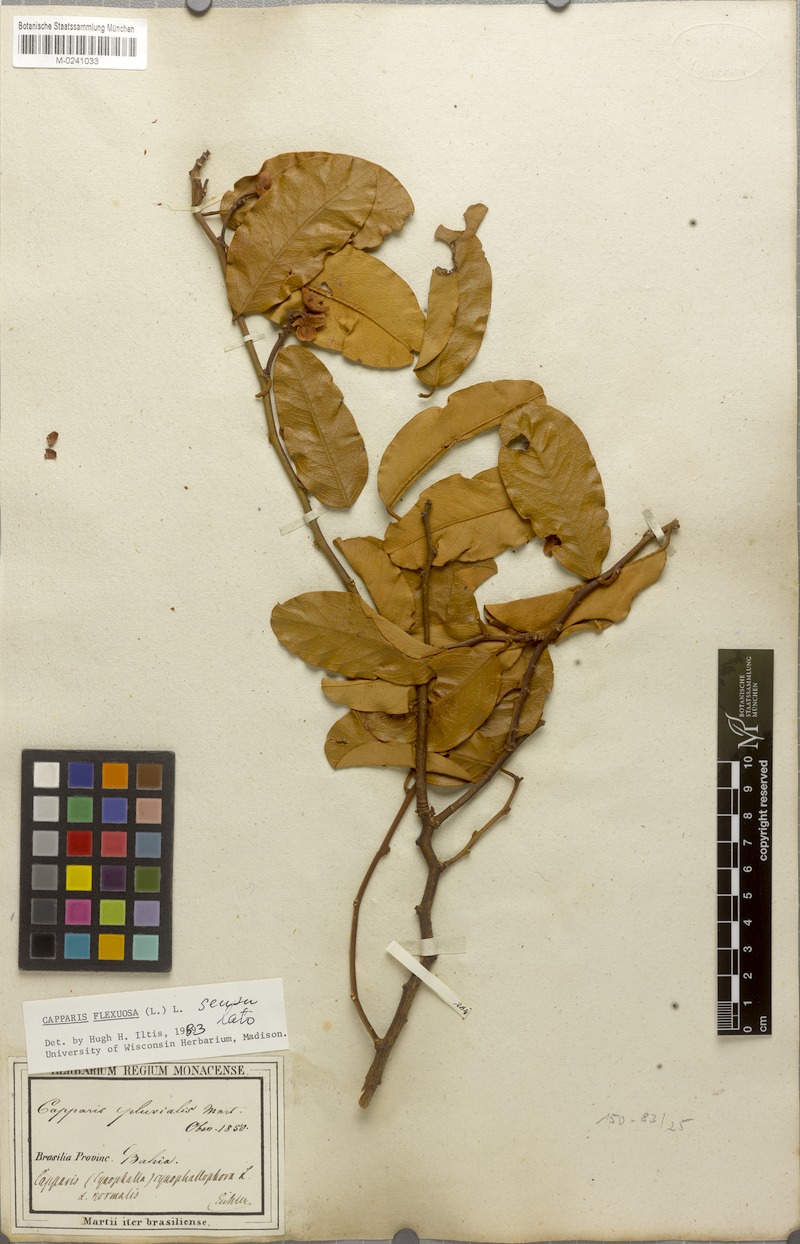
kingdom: Plantae
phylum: Tracheophyta
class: Magnoliopsida
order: Brassicales
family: Capparaceae
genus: Cynophalla
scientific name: Cynophalla flexuosa
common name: Capertree
